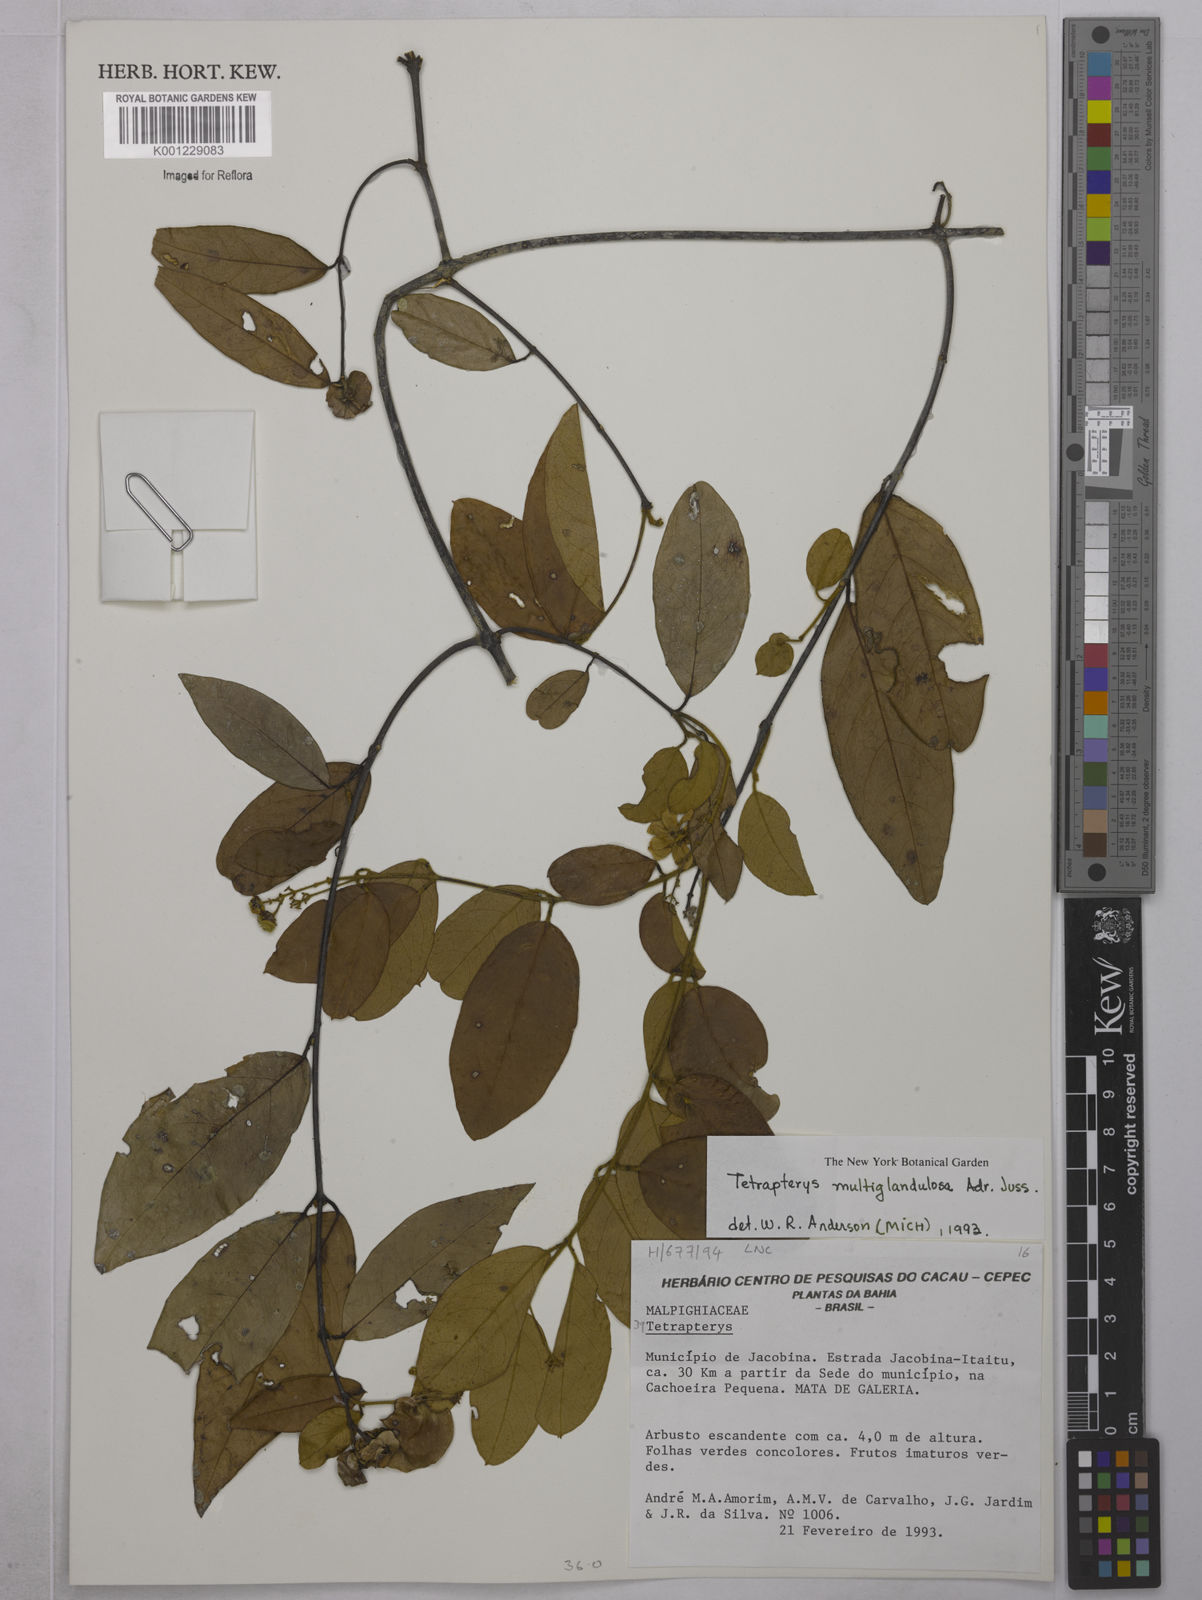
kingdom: Plantae
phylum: Tracheophyta
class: Magnoliopsida
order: Malpighiales
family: Malpighiaceae
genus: Niedenzuella
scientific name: Niedenzuella multiglandulosa
